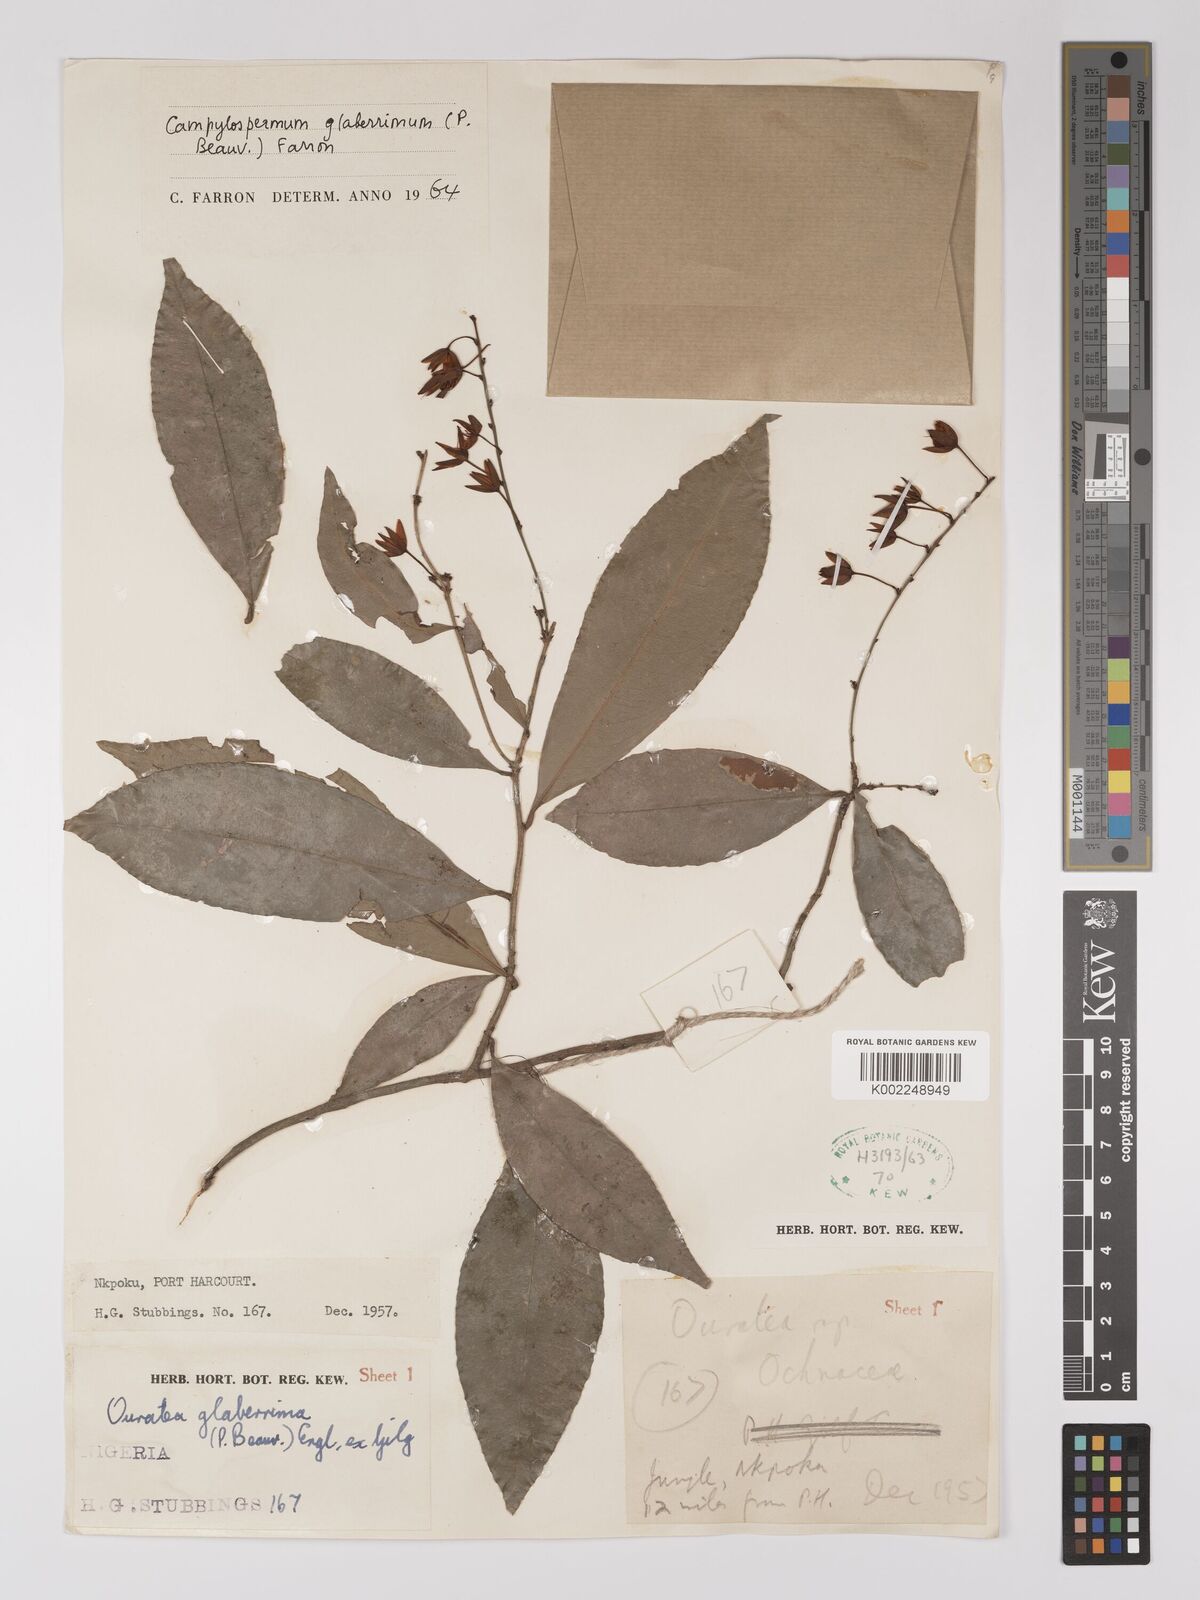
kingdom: Plantae
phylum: Tracheophyta
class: Magnoliopsida
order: Malpighiales
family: Ochnaceae
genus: Campylospermum
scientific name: Campylospermum glaberrimum
